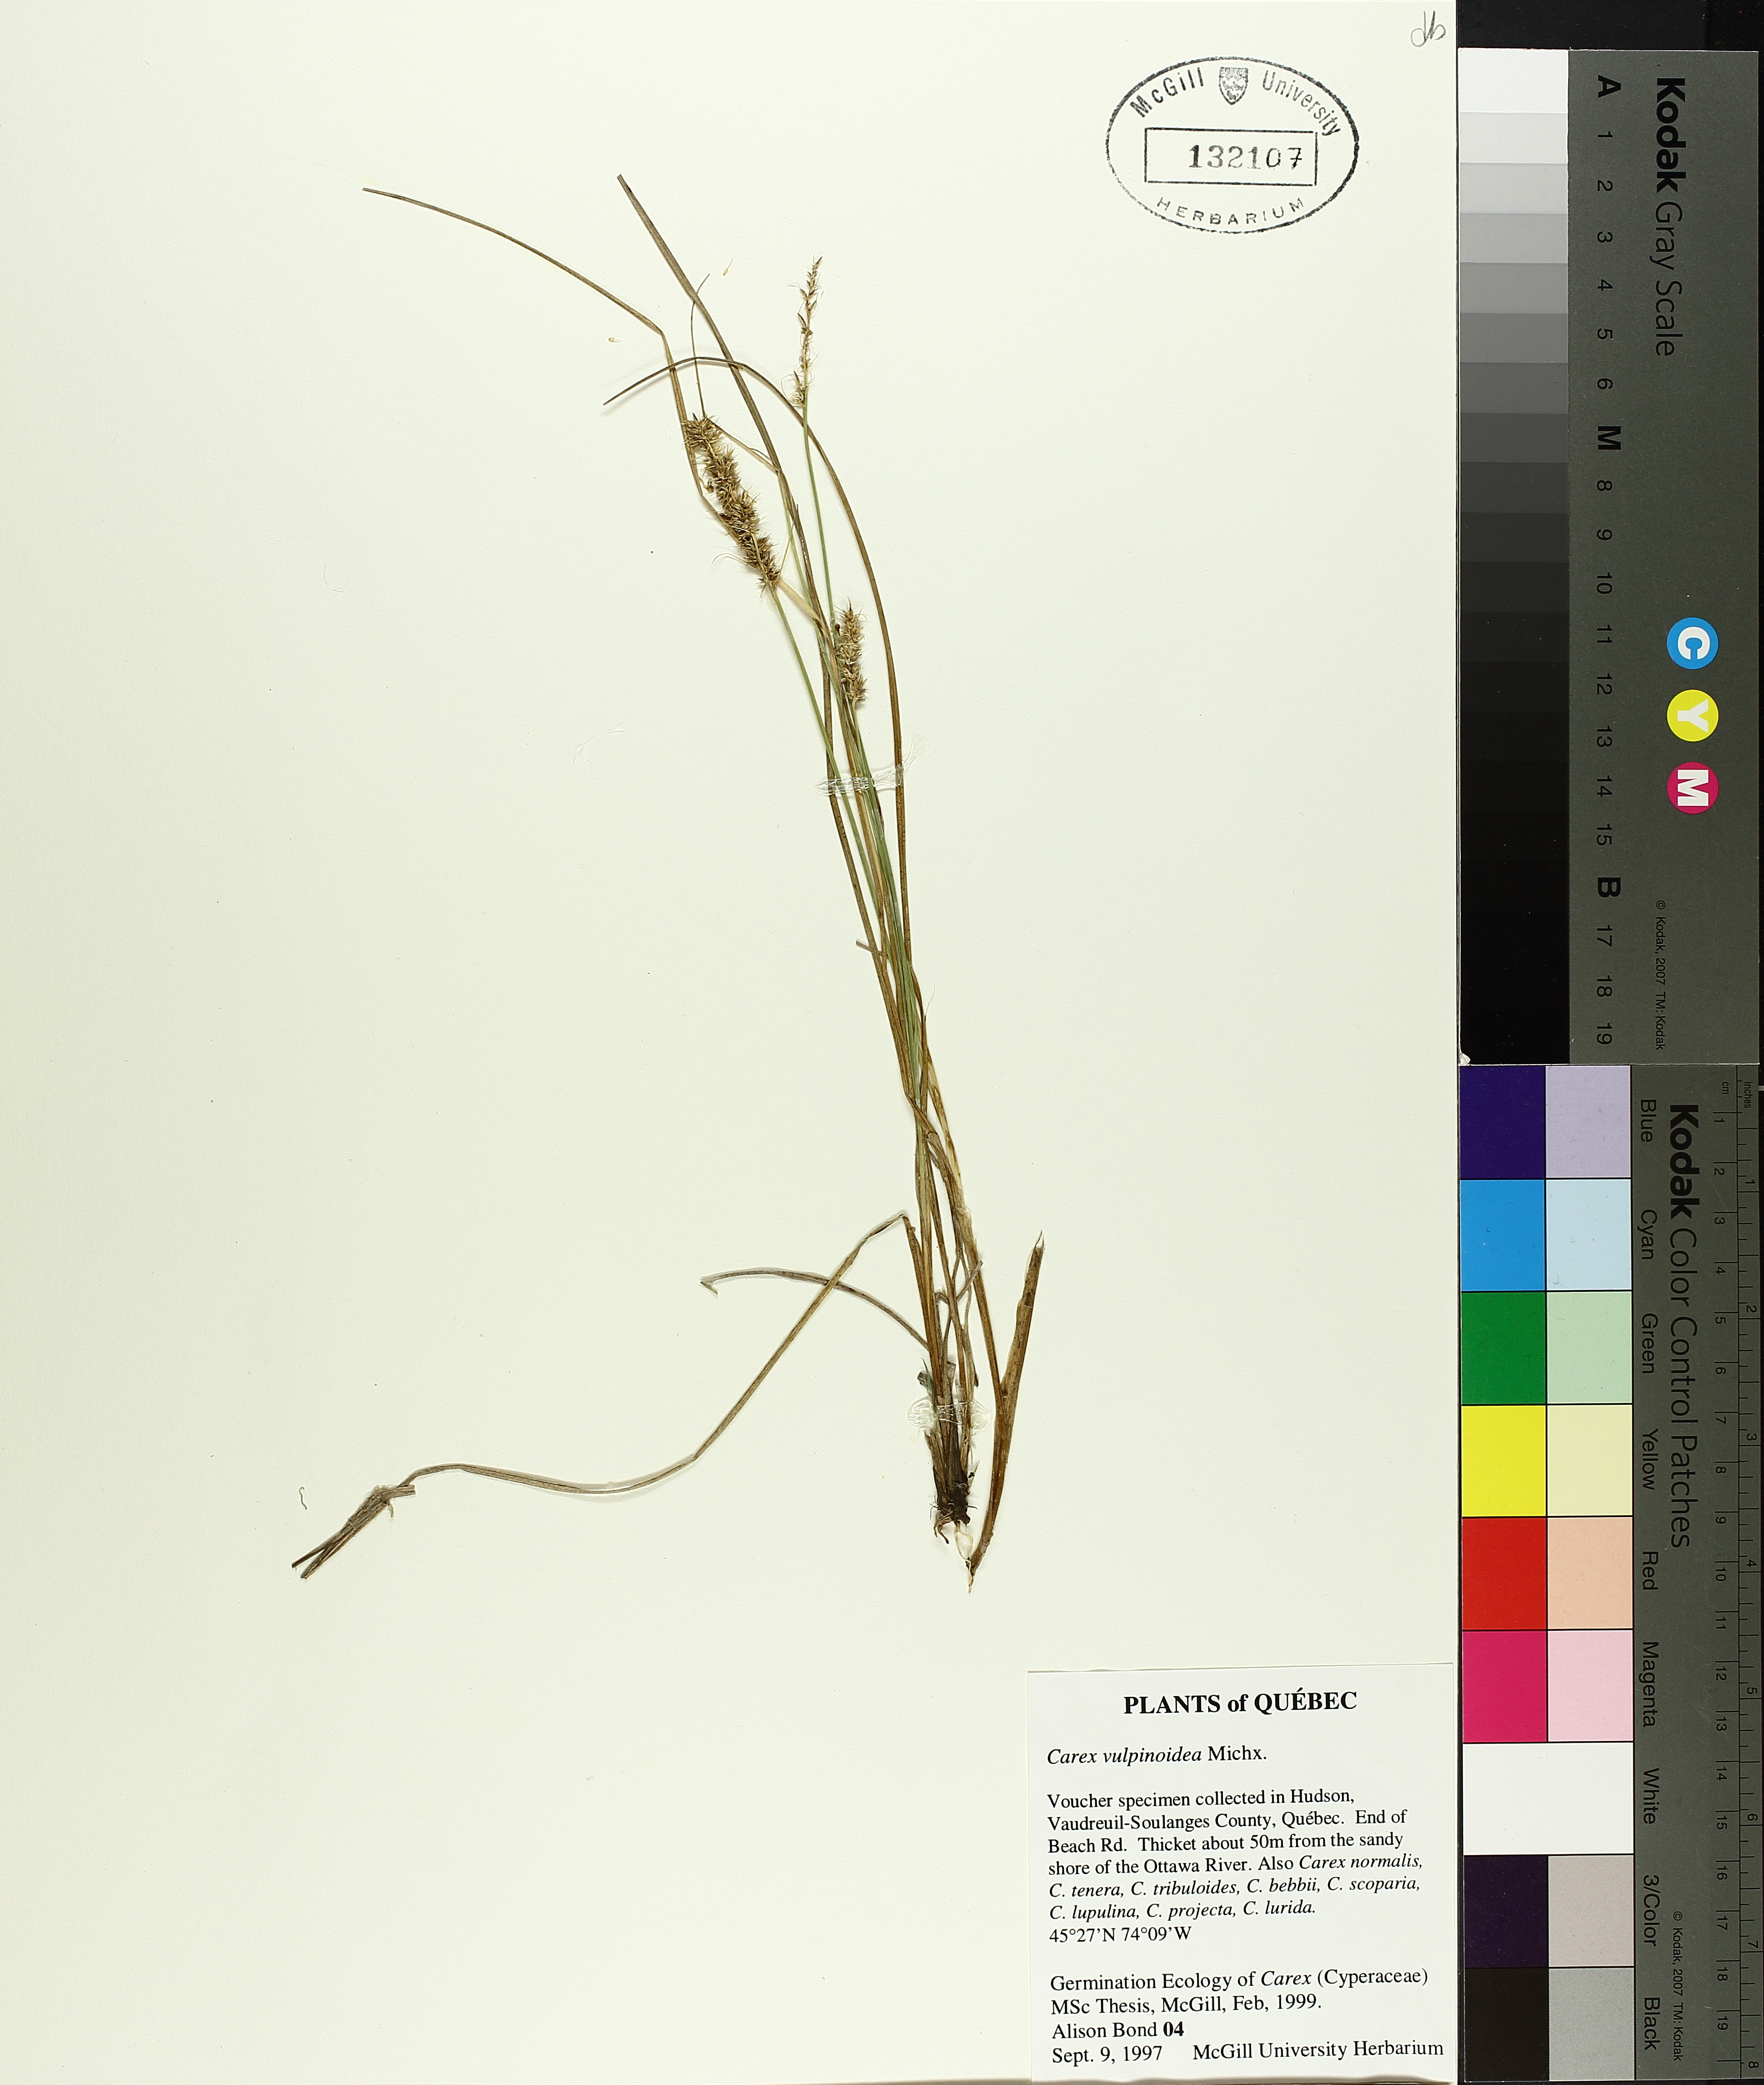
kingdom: Plantae
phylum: Tracheophyta
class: Liliopsida
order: Poales
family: Cyperaceae
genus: Carex
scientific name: Carex canescens
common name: White sedge
